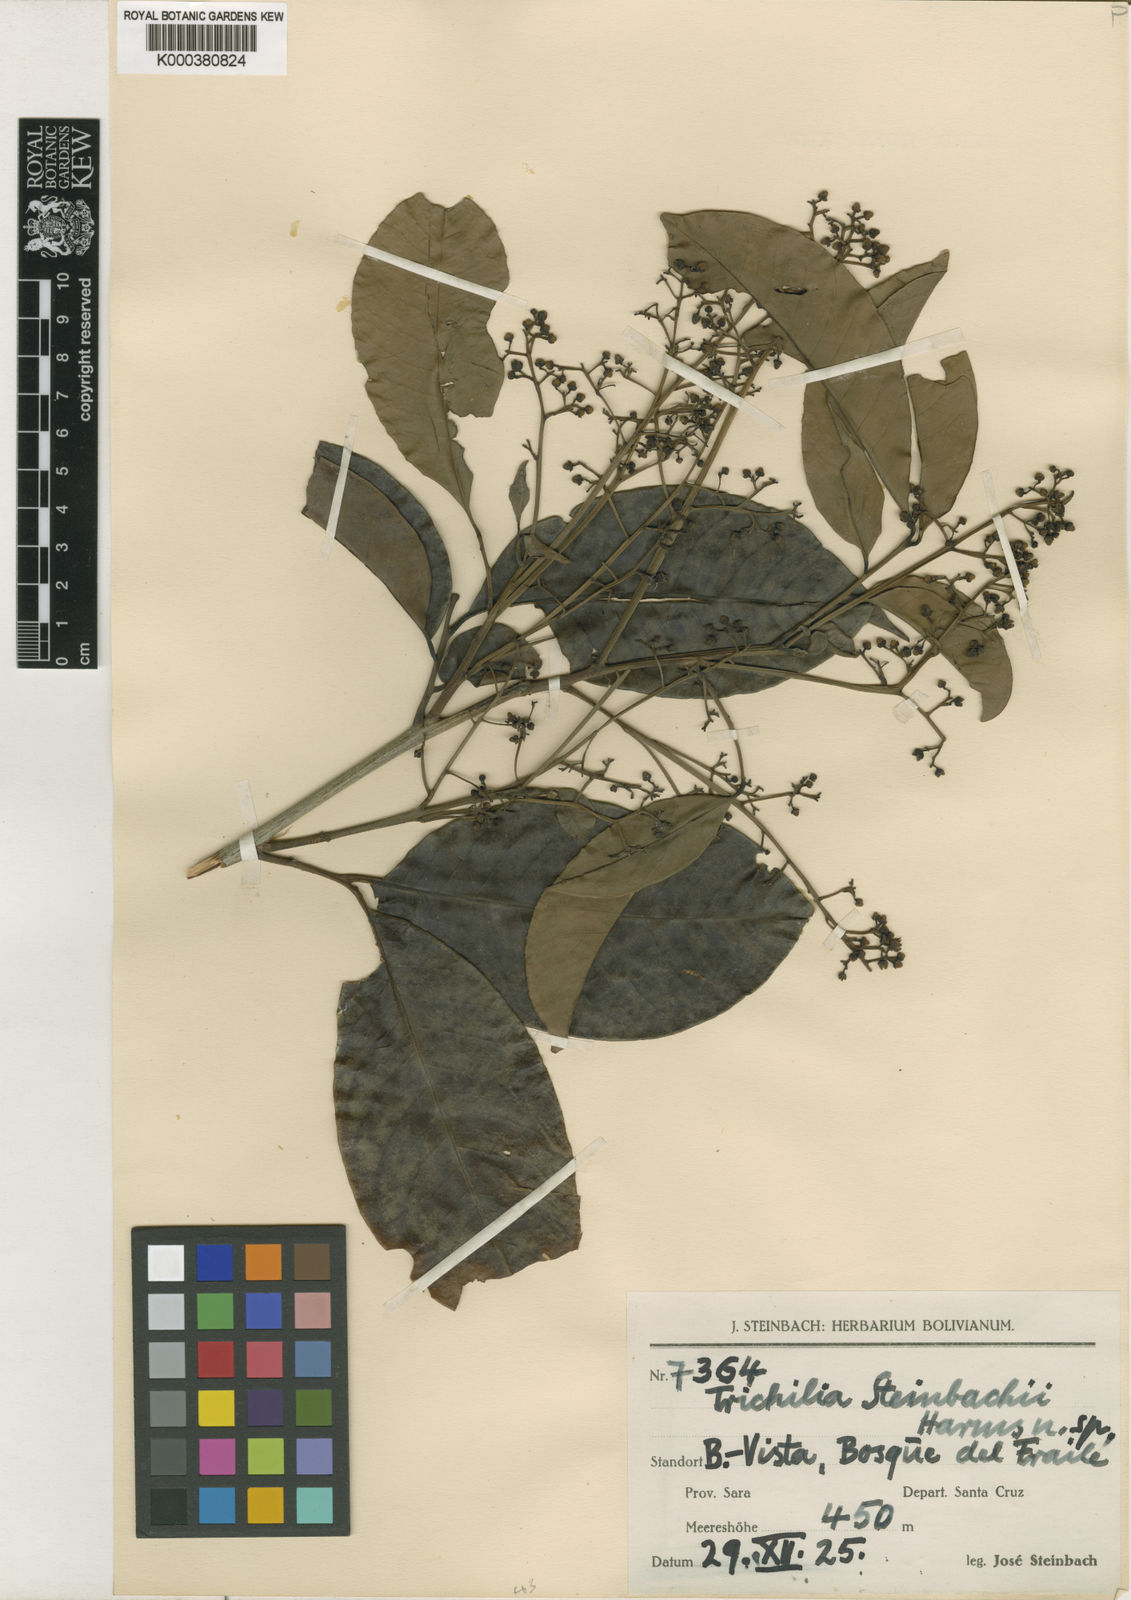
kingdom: Plantae
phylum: Tracheophyta
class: Magnoliopsida
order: Sapindales
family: Meliaceae
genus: Trichilia
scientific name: Trichilia pleeana
